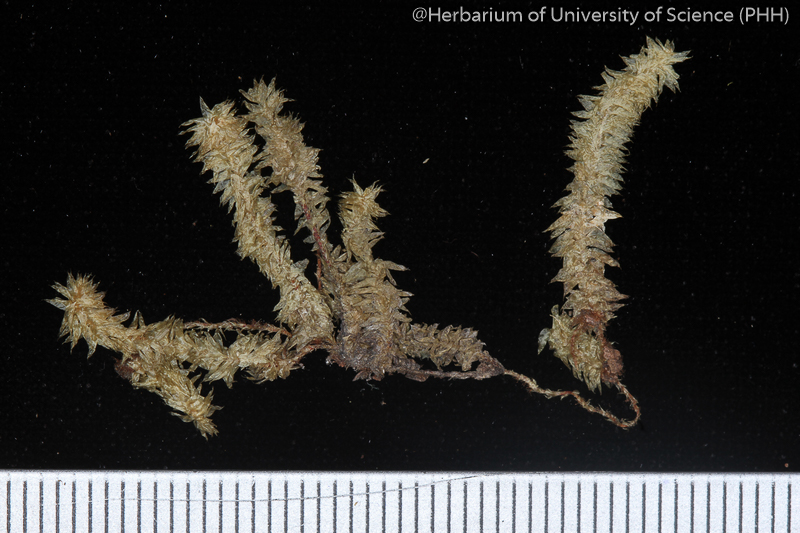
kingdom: Plantae
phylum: Bryophyta
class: Bryopsida
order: Hypnales
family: Pterobryaceae
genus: Calyptothecium
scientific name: Calyptothecium wightii
